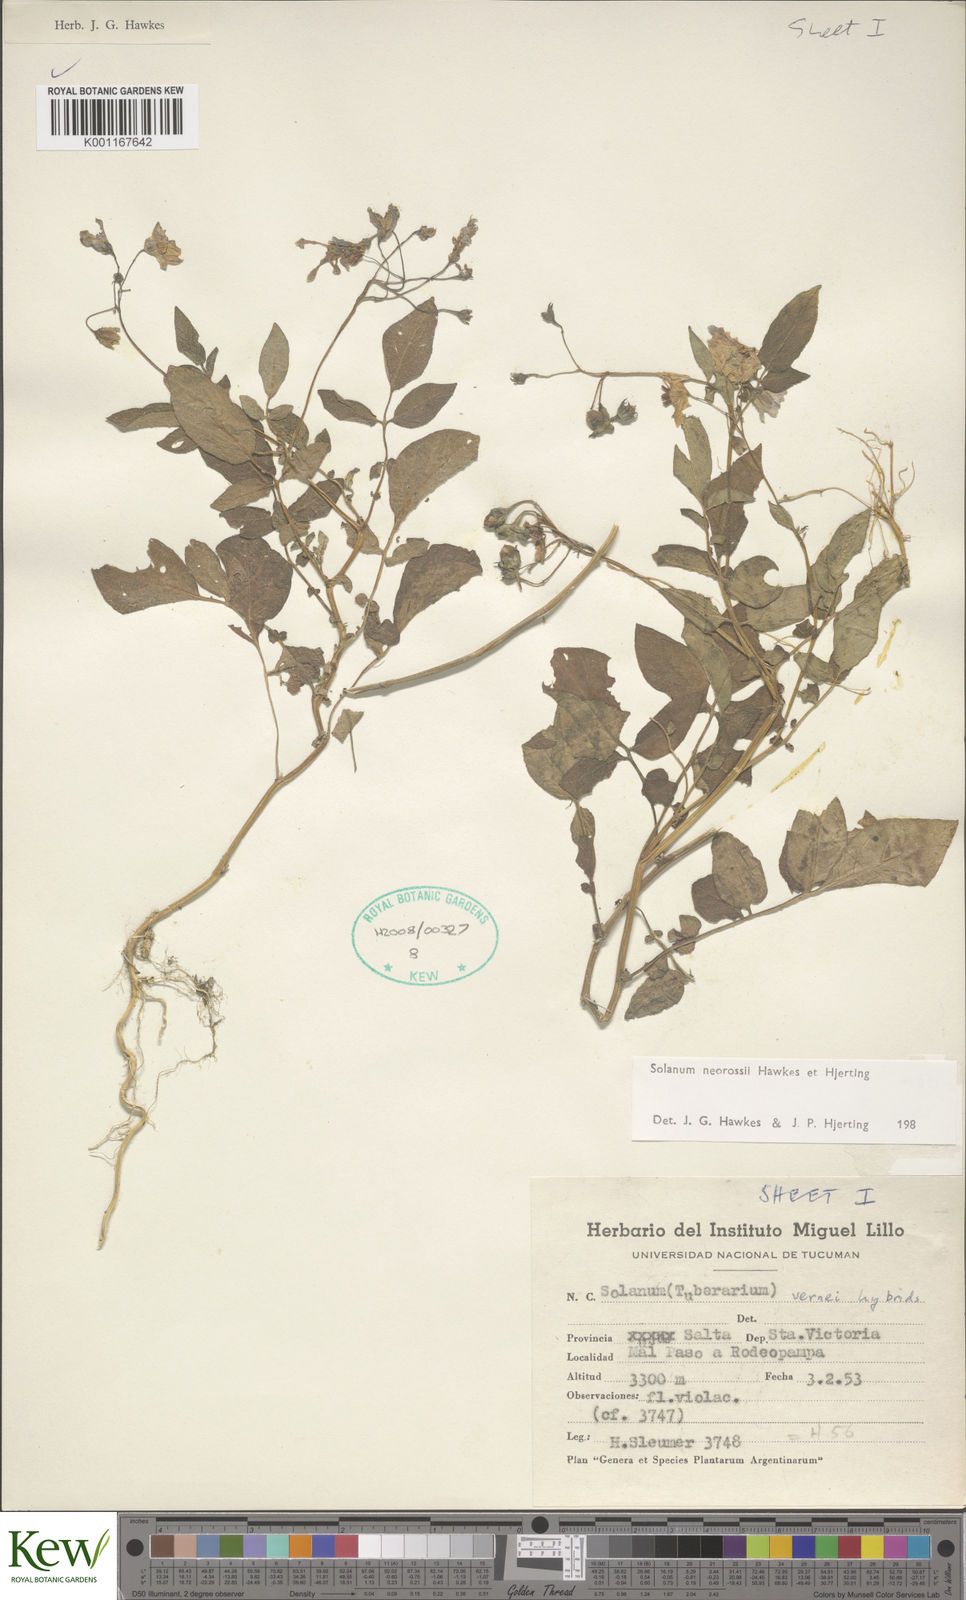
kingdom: Plantae
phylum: Tracheophyta
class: Magnoliopsida
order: Solanales
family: Solanaceae
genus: Solanum
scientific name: Solanum neorossii
